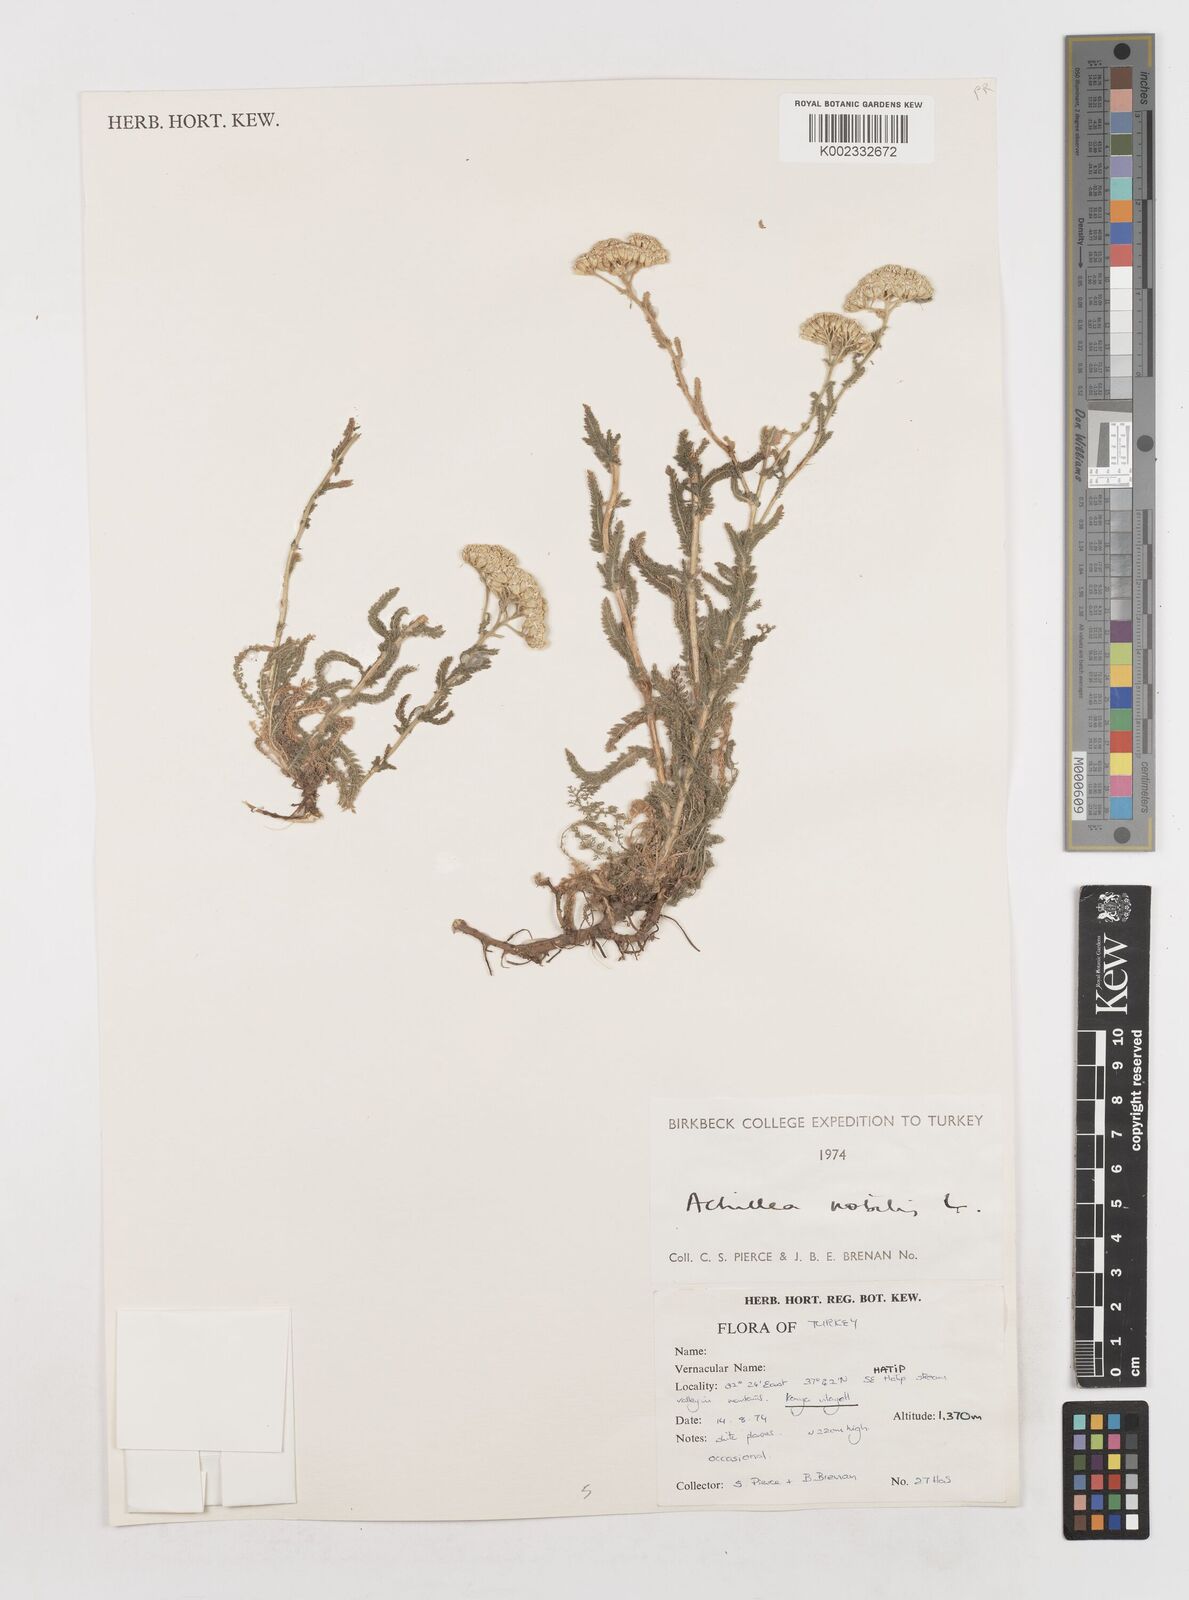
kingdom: Plantae
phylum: Tracheophyta
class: Magnoliopsida
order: Asterales
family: Asteraceae
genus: Achillea
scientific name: Achillea nobilis
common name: Noble yarrow
